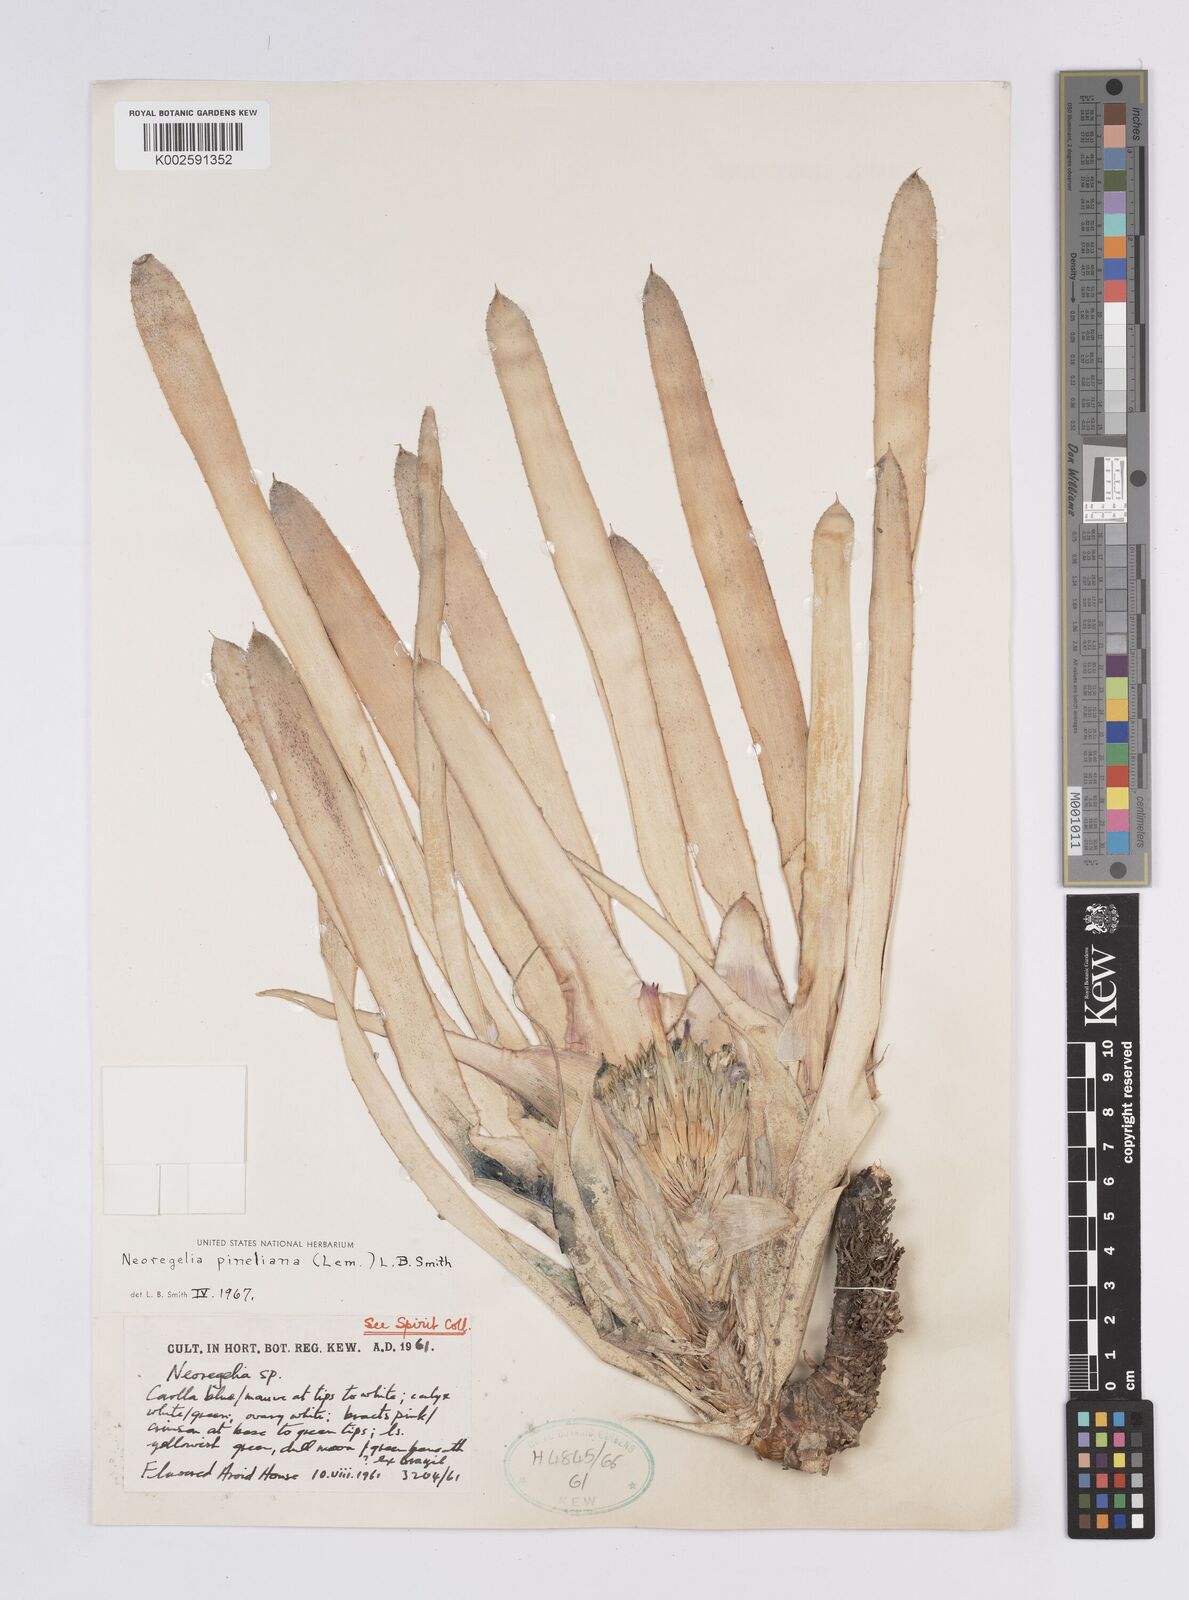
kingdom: Plantae
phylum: Tracheophyta
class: Liliopsida
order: Poales
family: Bromeliaceae
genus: Neoregelia
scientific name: Neoregelia pineliana
